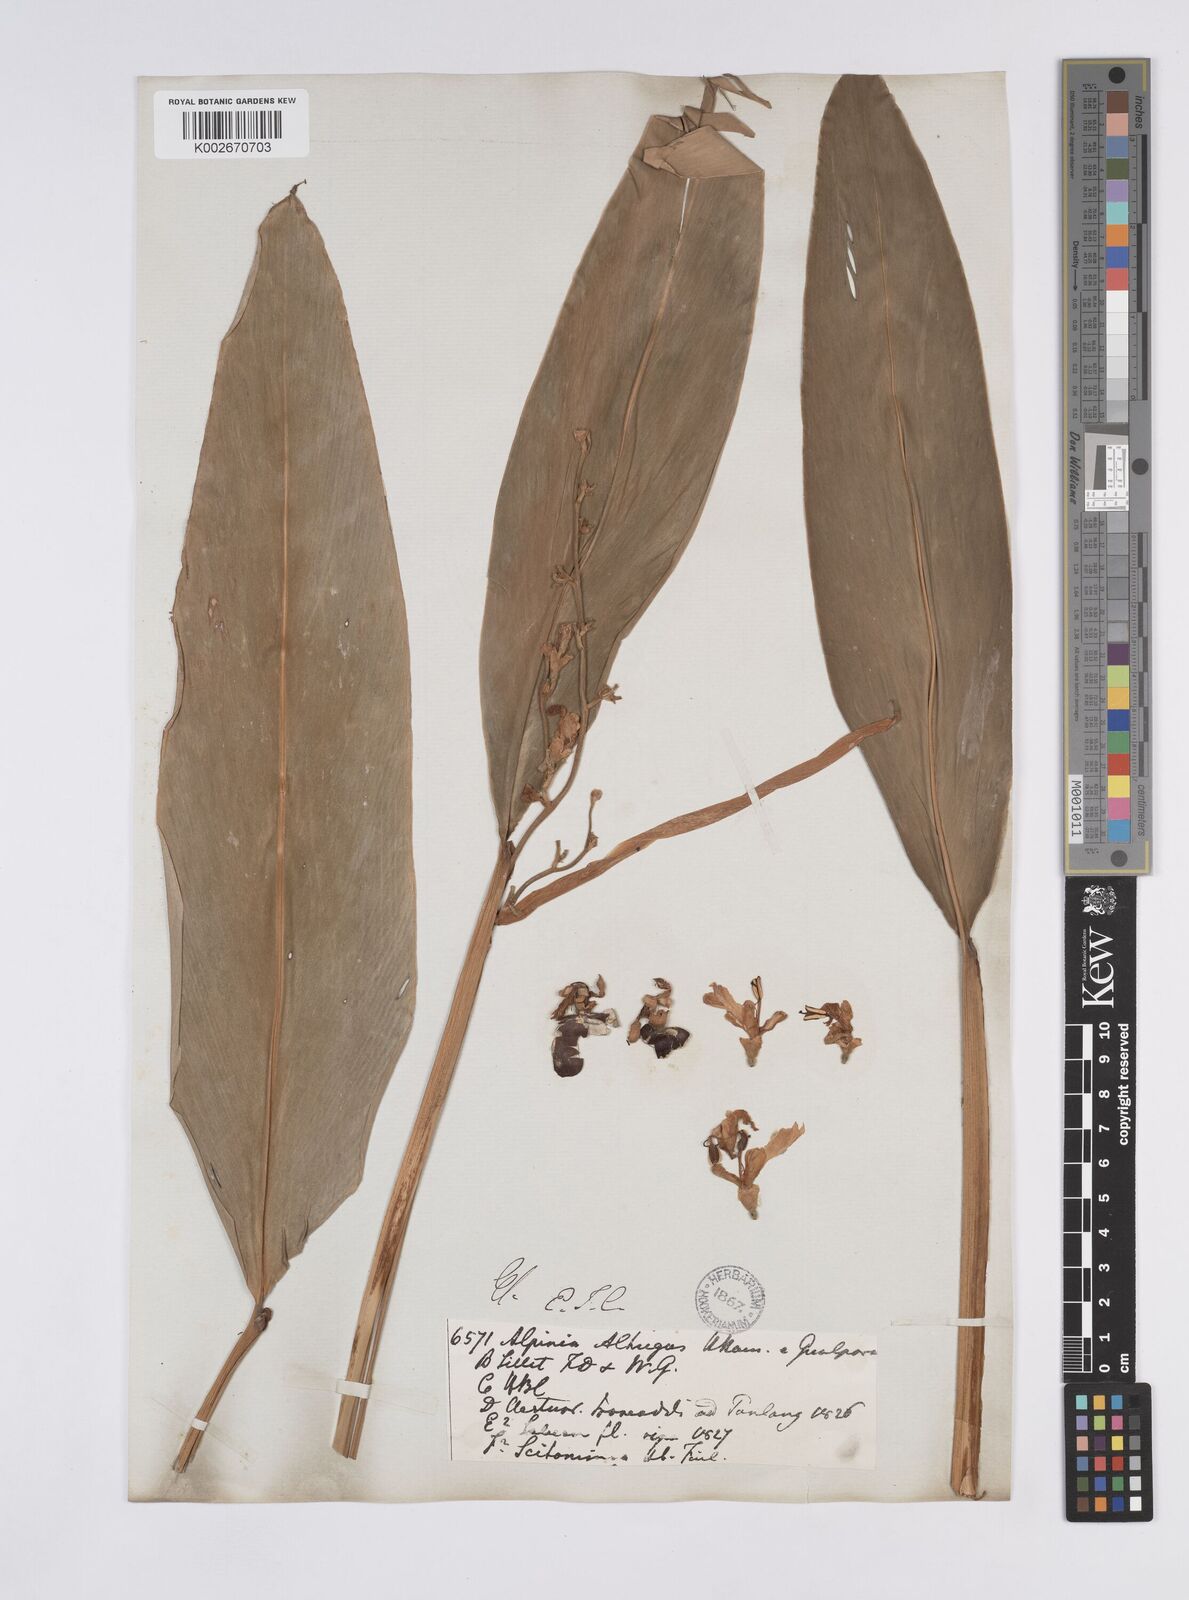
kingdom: Plantae
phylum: Tracheophyta
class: Liliopsida
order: Zingiberales
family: Zingiberaceae
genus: Alpinia
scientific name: Alpinia nigra
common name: Black fruited galanga
